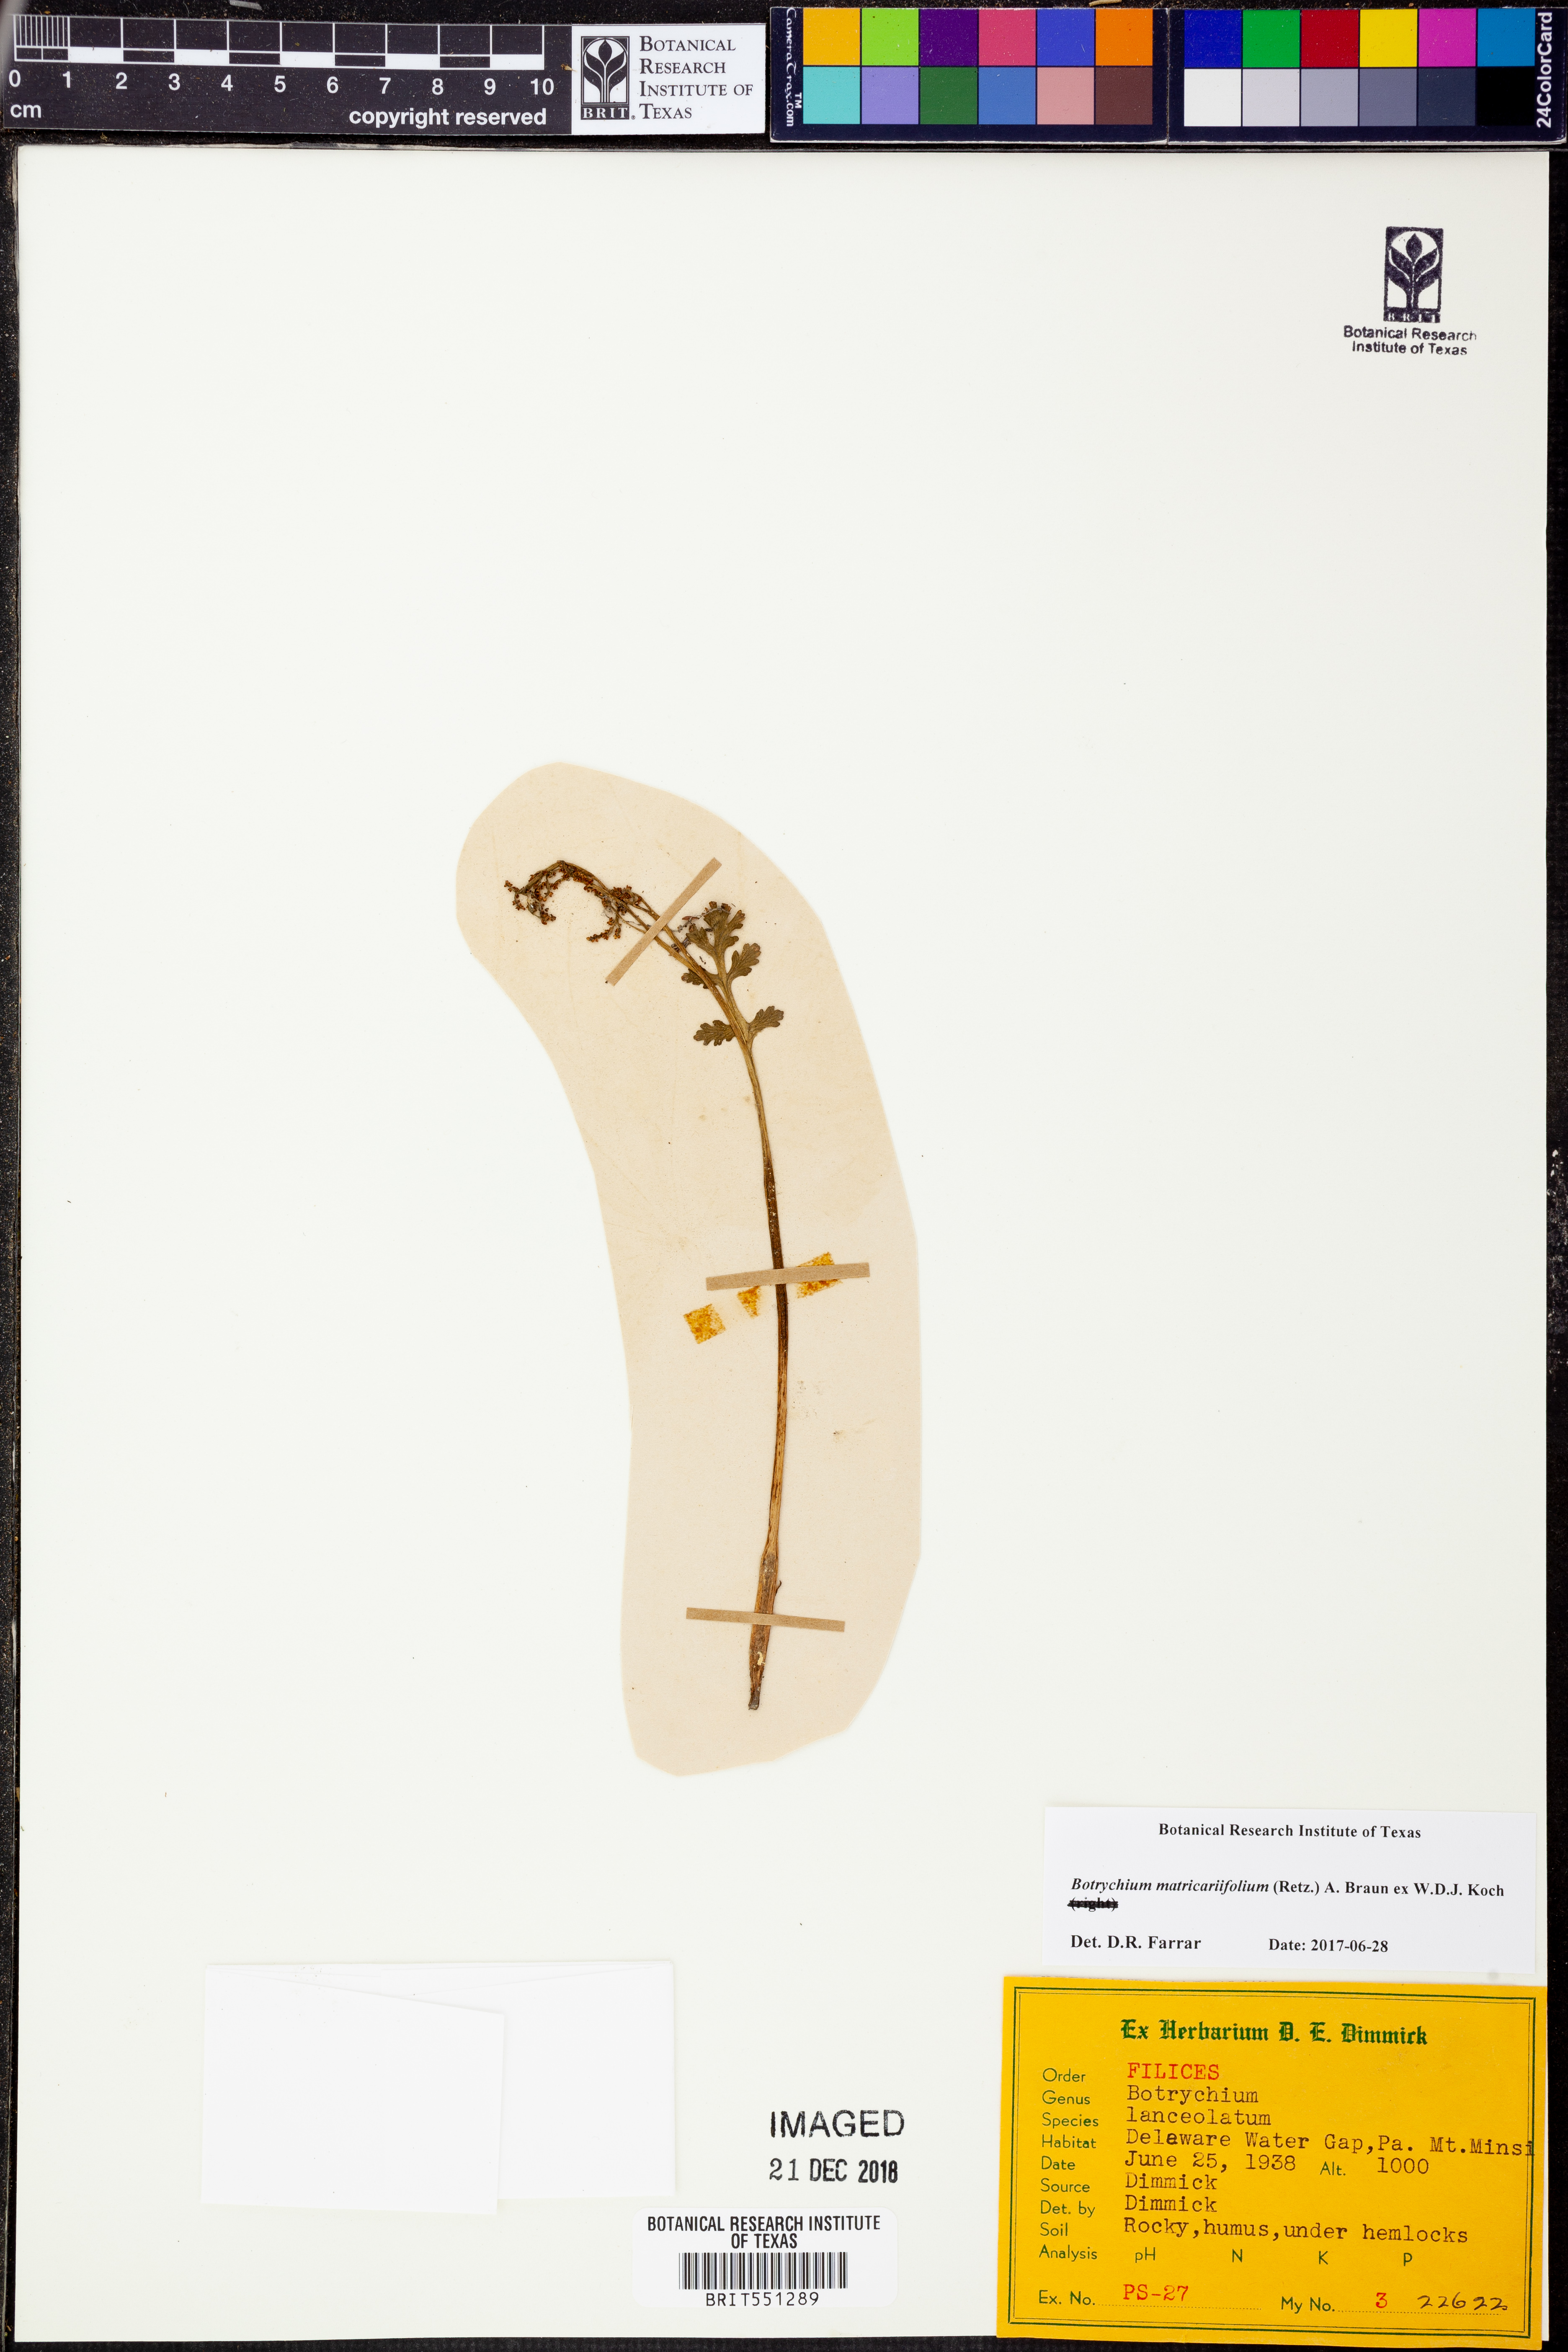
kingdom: Plantae
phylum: Tracheophyta
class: Polypodiopsida
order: Ophioglossales
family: Ophioglossaceae
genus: Botrychium
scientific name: Botrychium matricariifolium
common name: Branched moonwort
